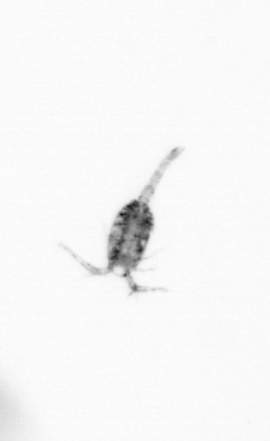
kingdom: Animalia
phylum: Arthropoda
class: Copepoda
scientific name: Copepoda
